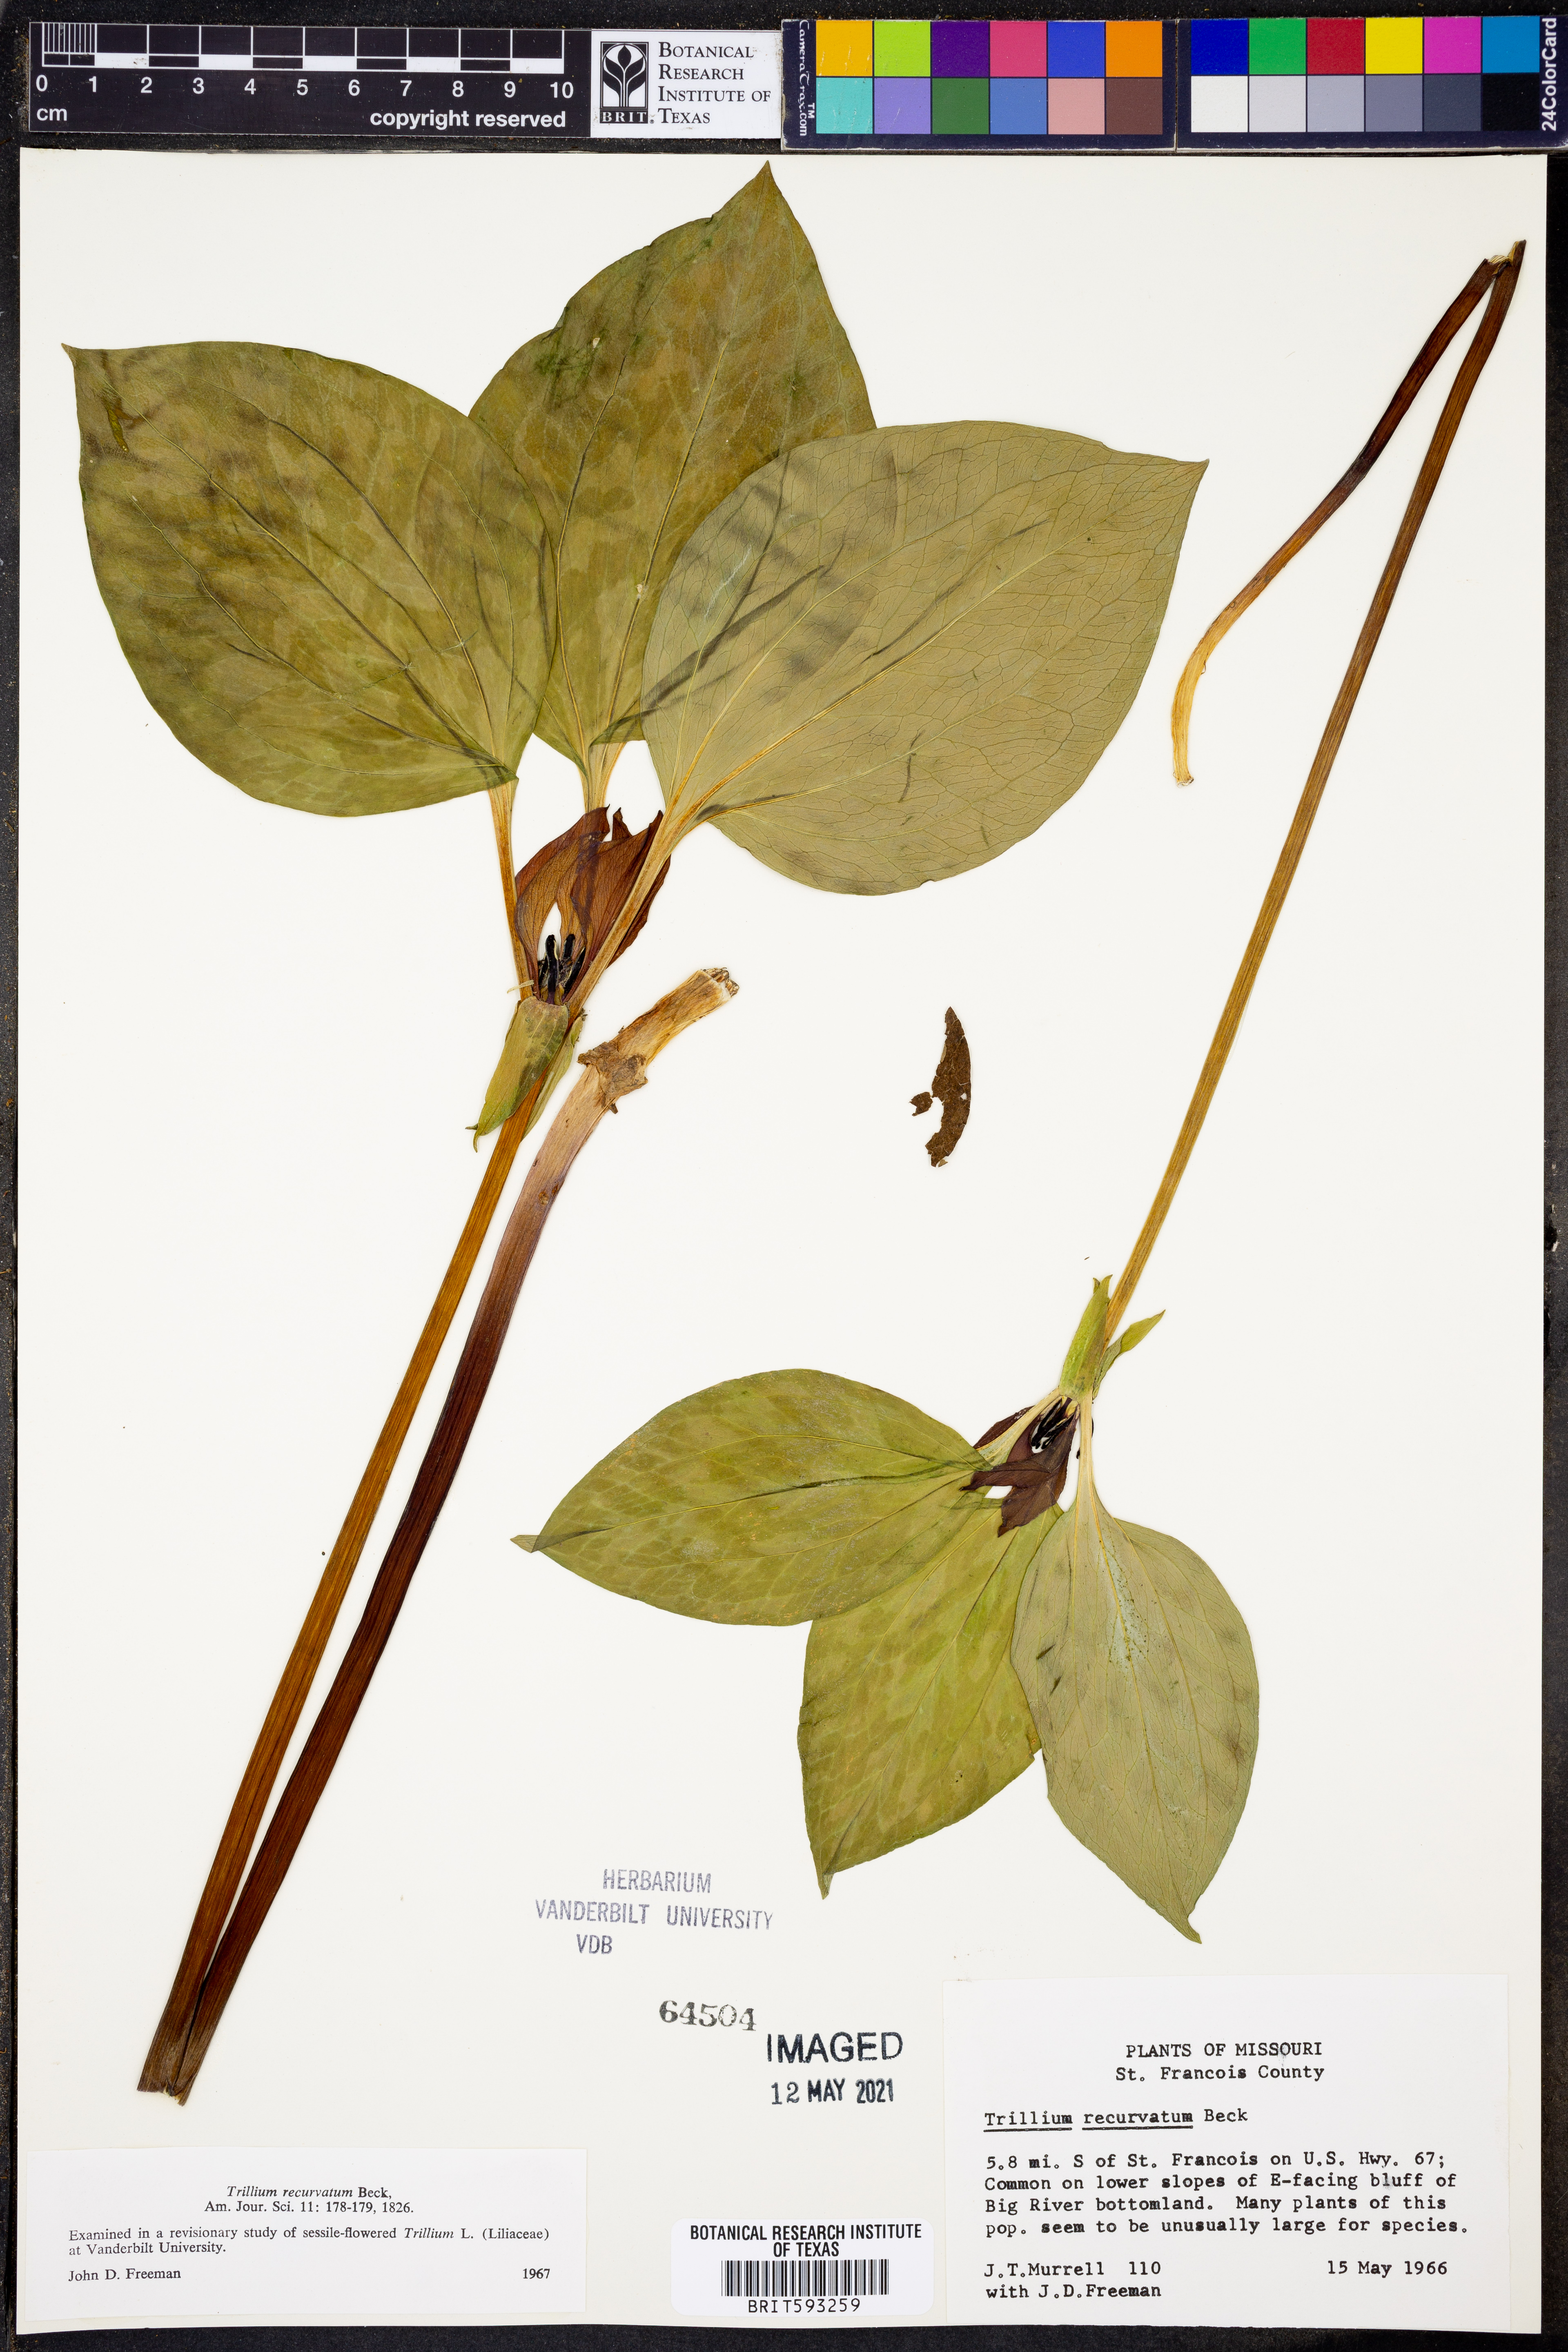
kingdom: Plantae
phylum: Tracheophyta
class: Liliopsida
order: Liliales
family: Melanthiaceae
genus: Trillium
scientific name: Trillium recurvatum
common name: Bloody butcher
